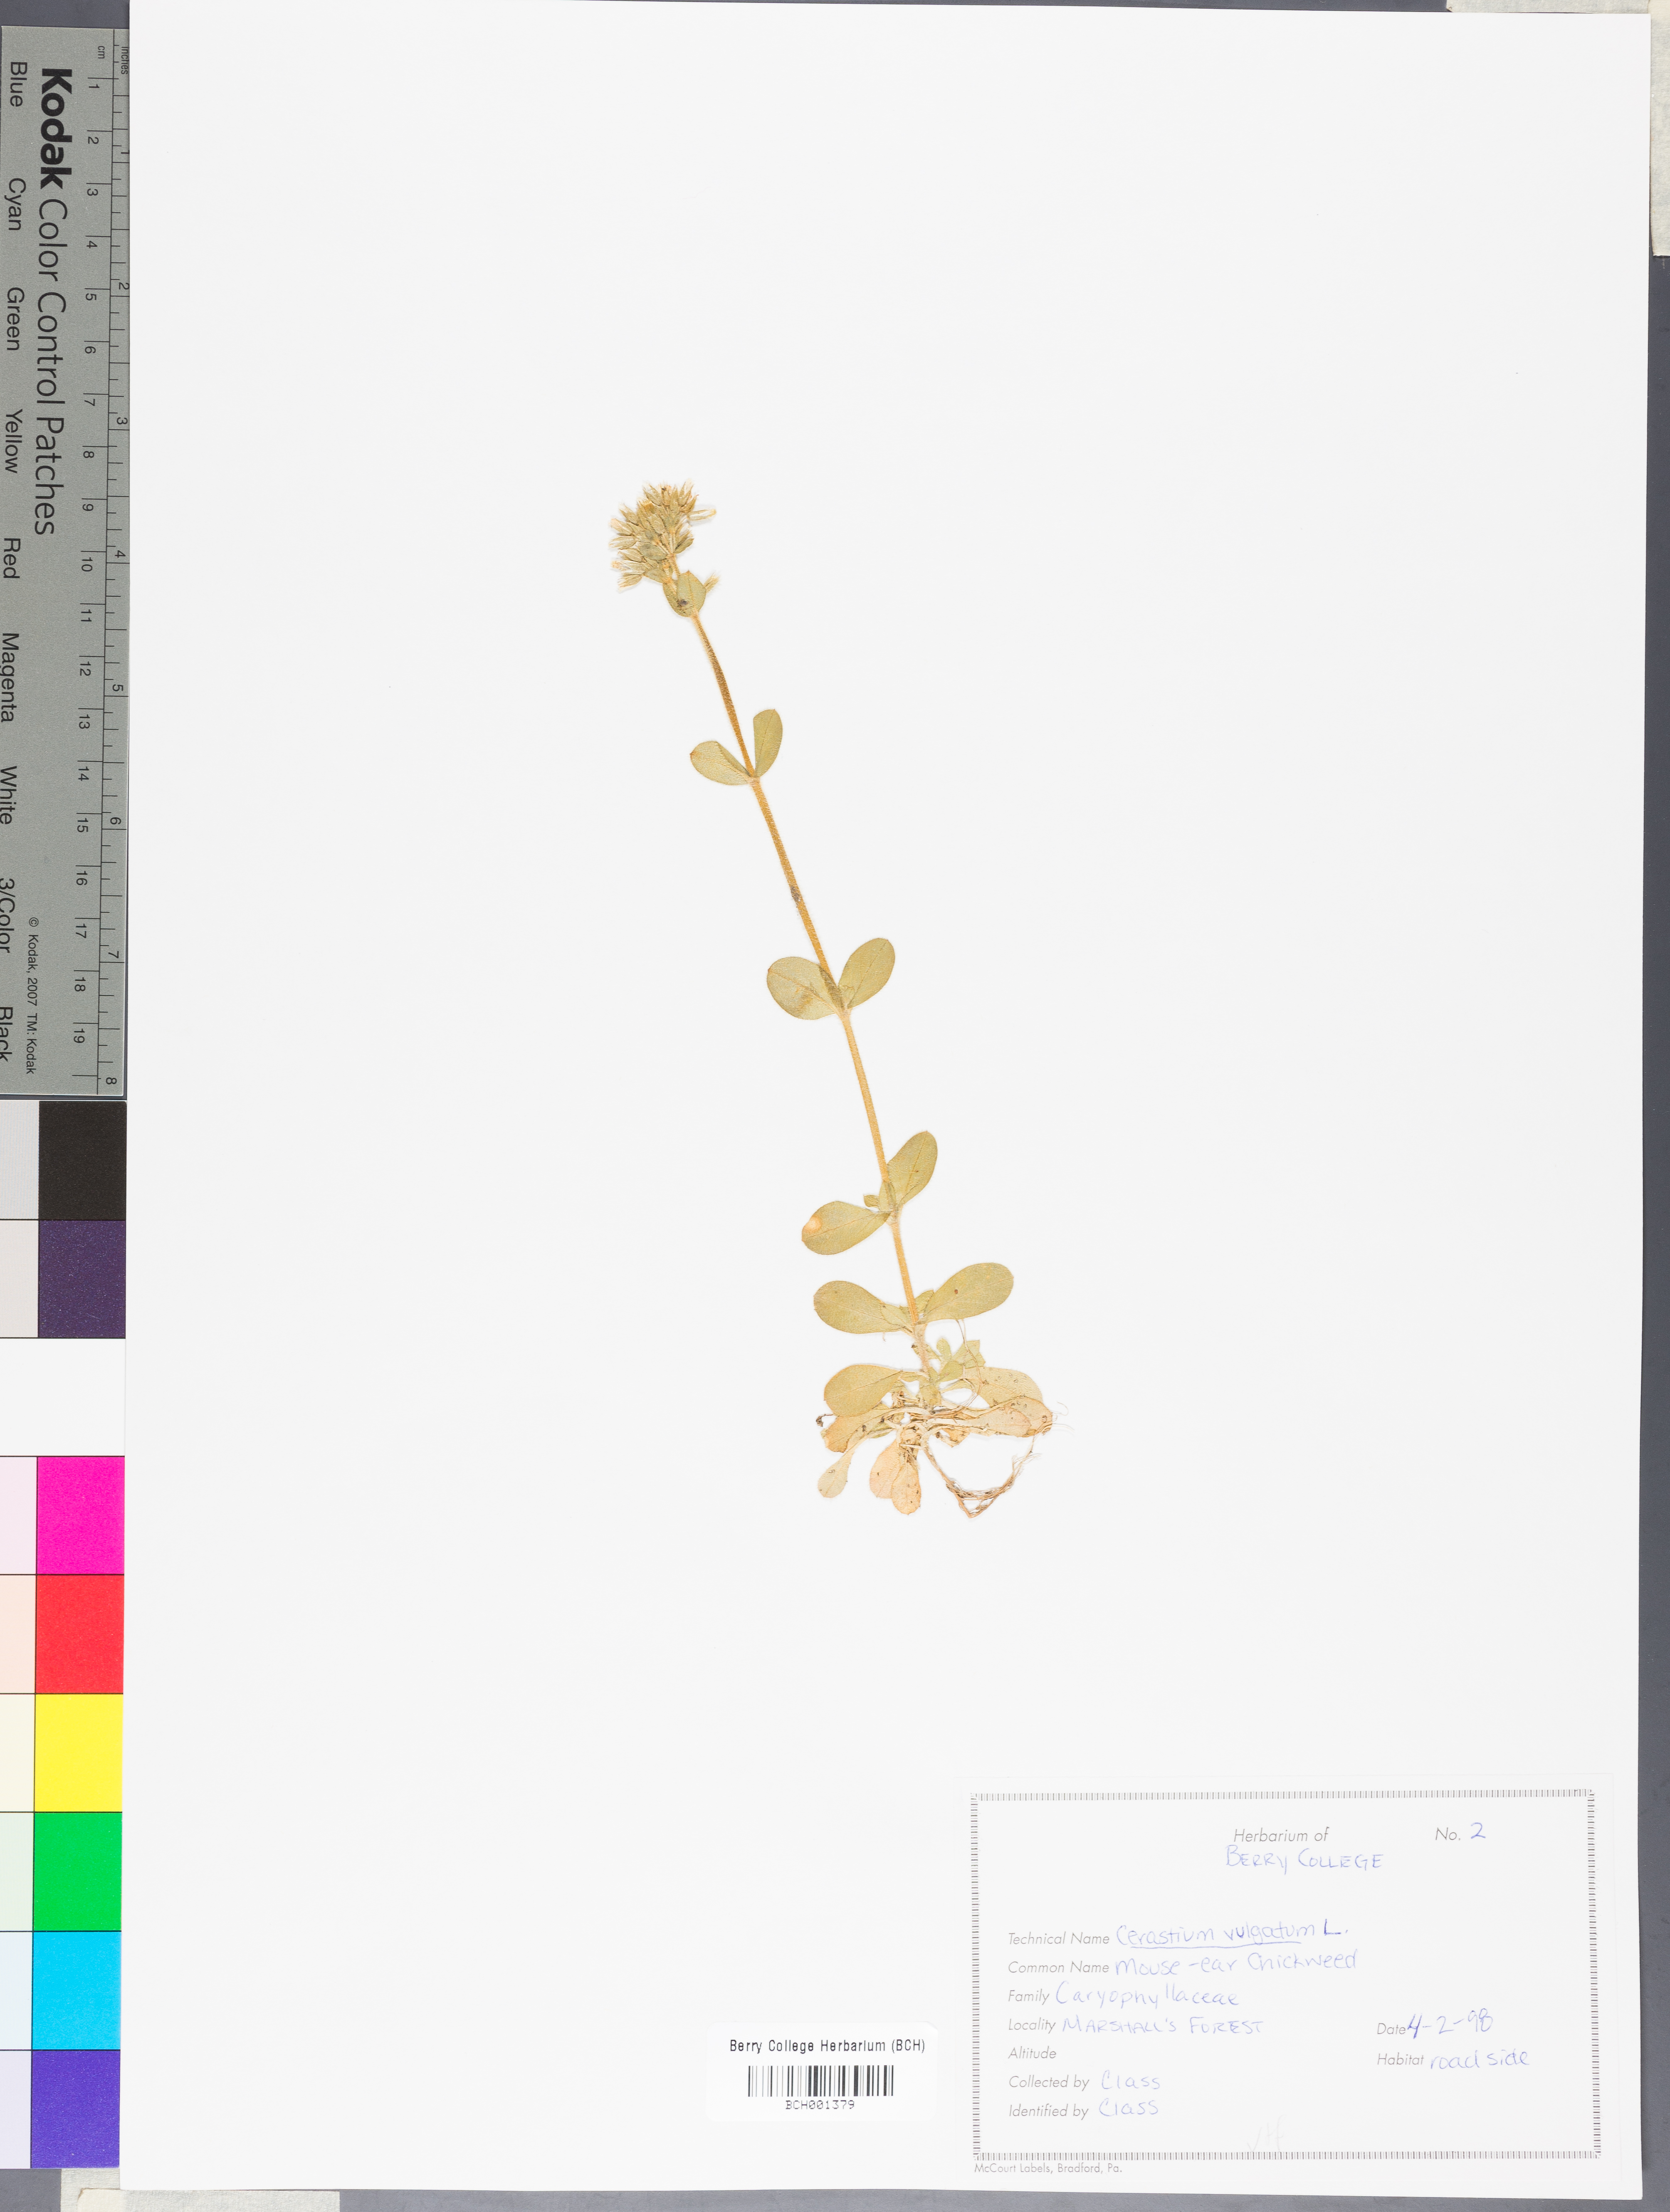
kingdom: Plantae
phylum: Tracheophyta
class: Magnoliopsida
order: Caryophyllales
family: Caryophyllaceae
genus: Cerastium
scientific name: Cerastium holosteoides
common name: Big chickweed
